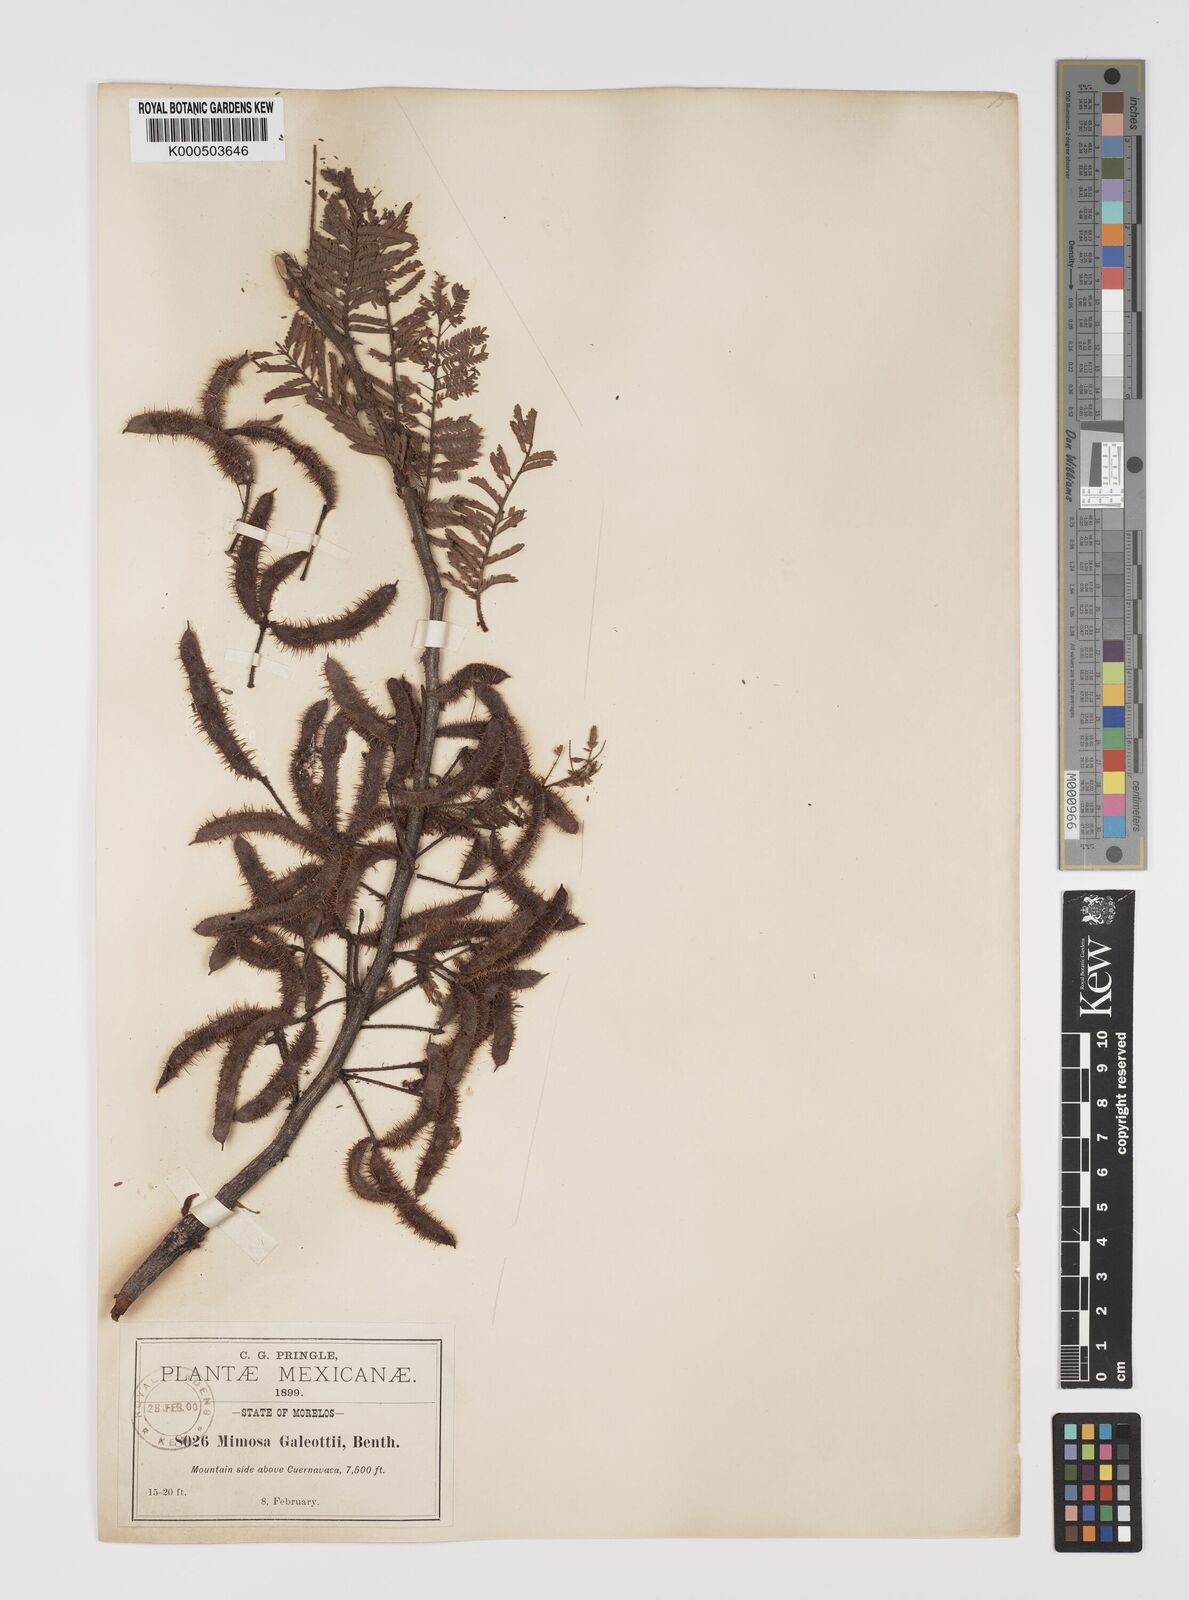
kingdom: Plantae
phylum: Tracheophyta
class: Magnoliopsida
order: Fabales
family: Fabaceae
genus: Mimosa
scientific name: Mimosa galeottii
